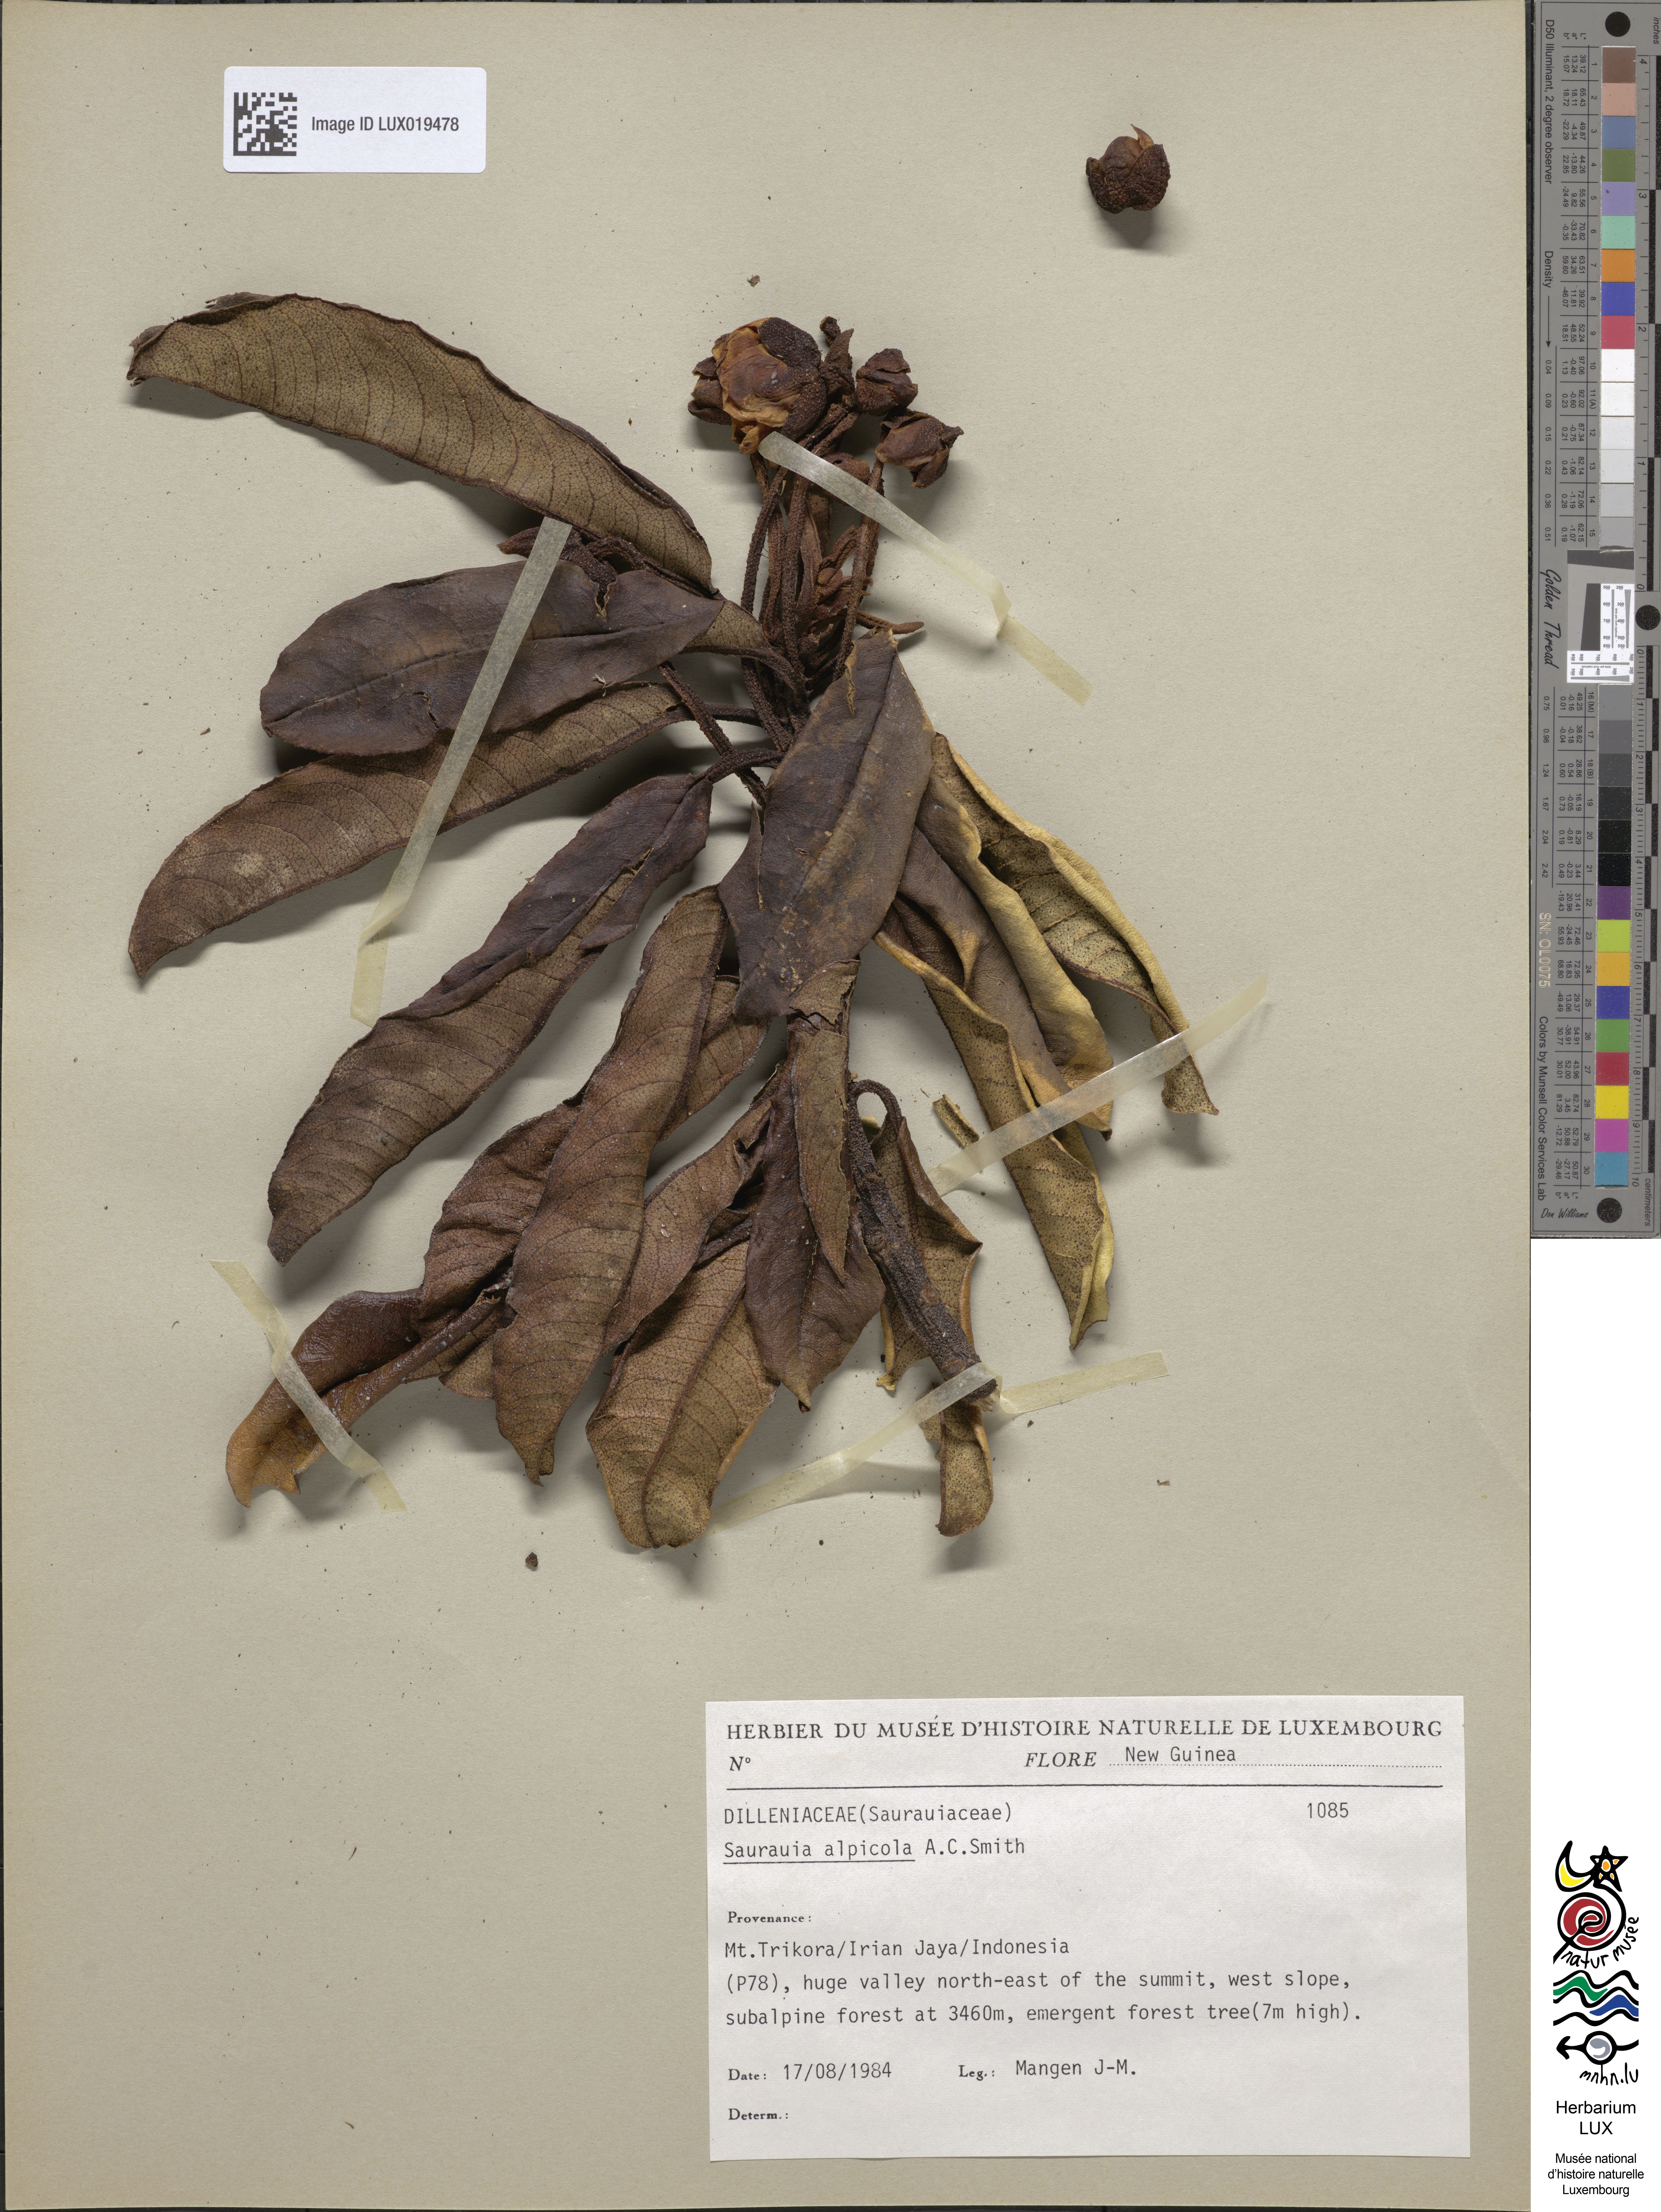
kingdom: Plantae
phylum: Tracheophyta
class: Magnoliopsida
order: Ericales
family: Actinidiaceae
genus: Saurauia
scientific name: Saurauia alpicola
